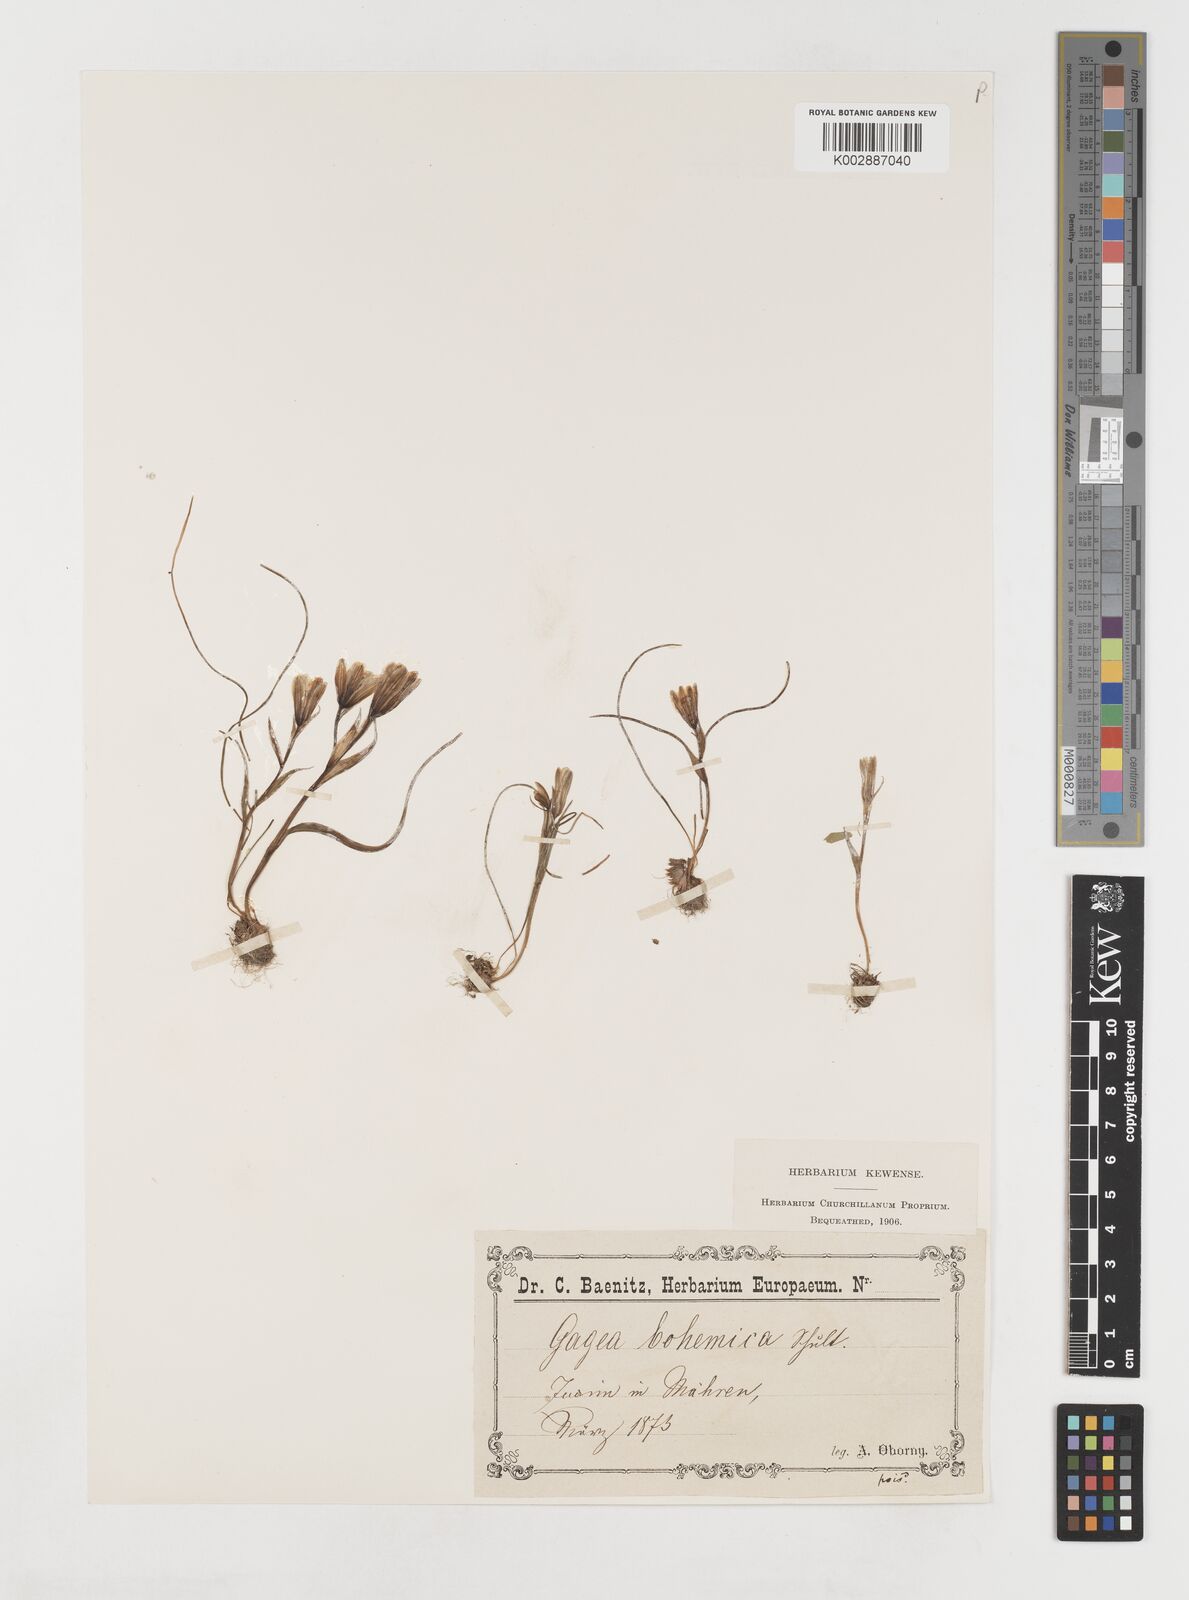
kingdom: Plantae
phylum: Tracheophyta
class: Liliopsida
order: Liliales
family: Liliaceae
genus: Gagea
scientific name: Gagea bohemica
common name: Early star-of-bethlehem
